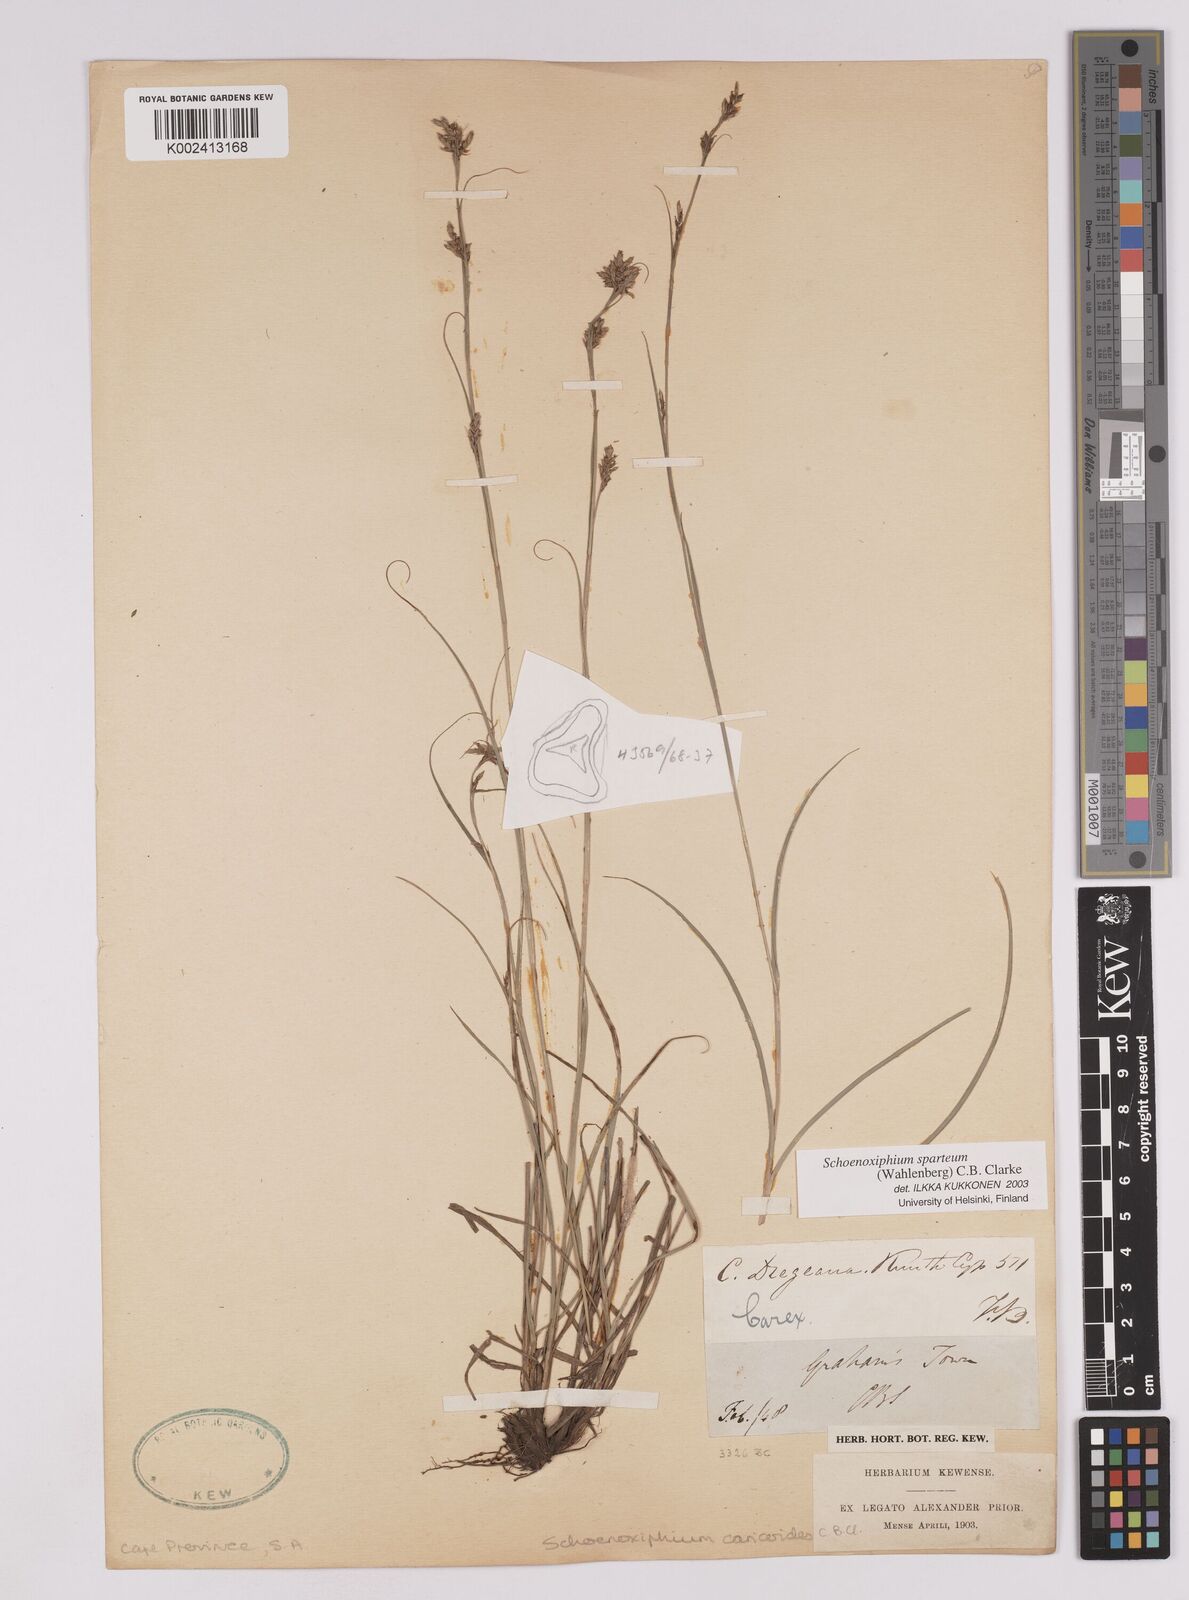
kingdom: Plantae
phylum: Tracheophyta
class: Liliopsida
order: Poales
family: Cyperaceae
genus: Carex
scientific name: Carex spartea
